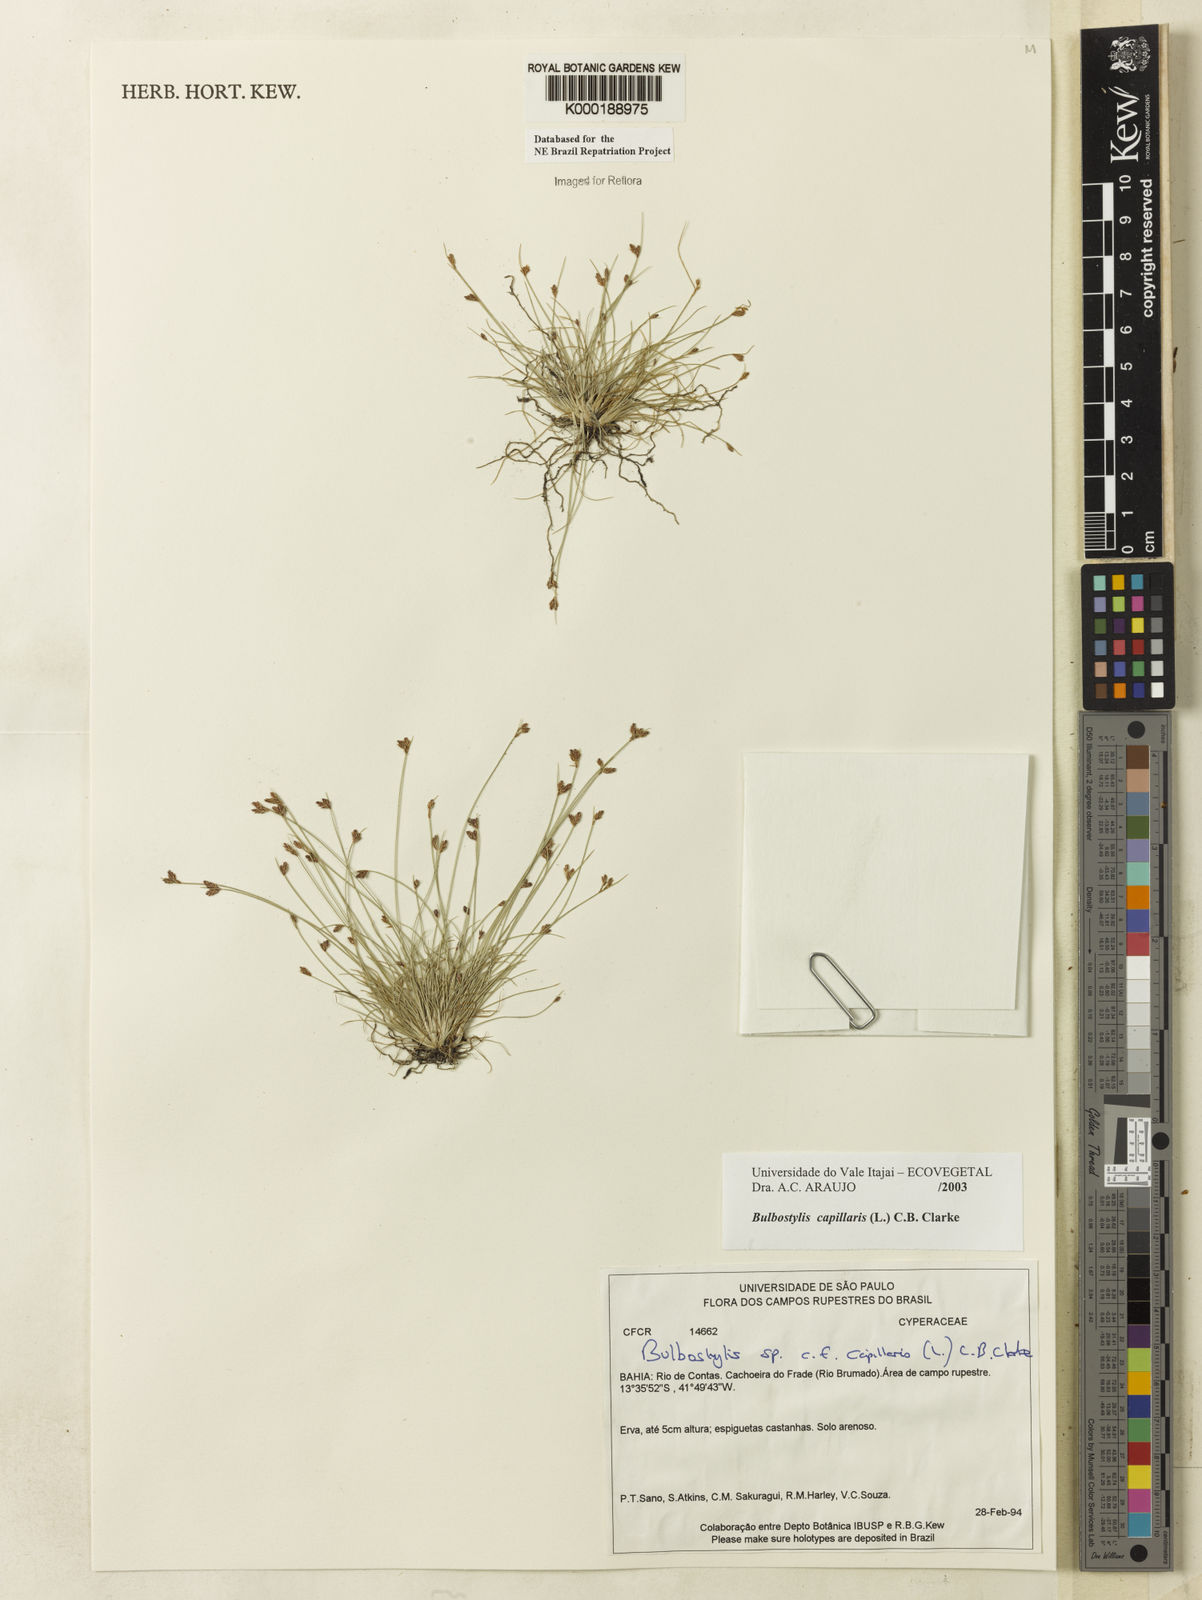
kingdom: Plantae
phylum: Tracheophyta
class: Liliopsida
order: Poales
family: Cyperaceae
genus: Bulbostylis
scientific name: Bulbostylis capillaris
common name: Densetuft hairsedge
